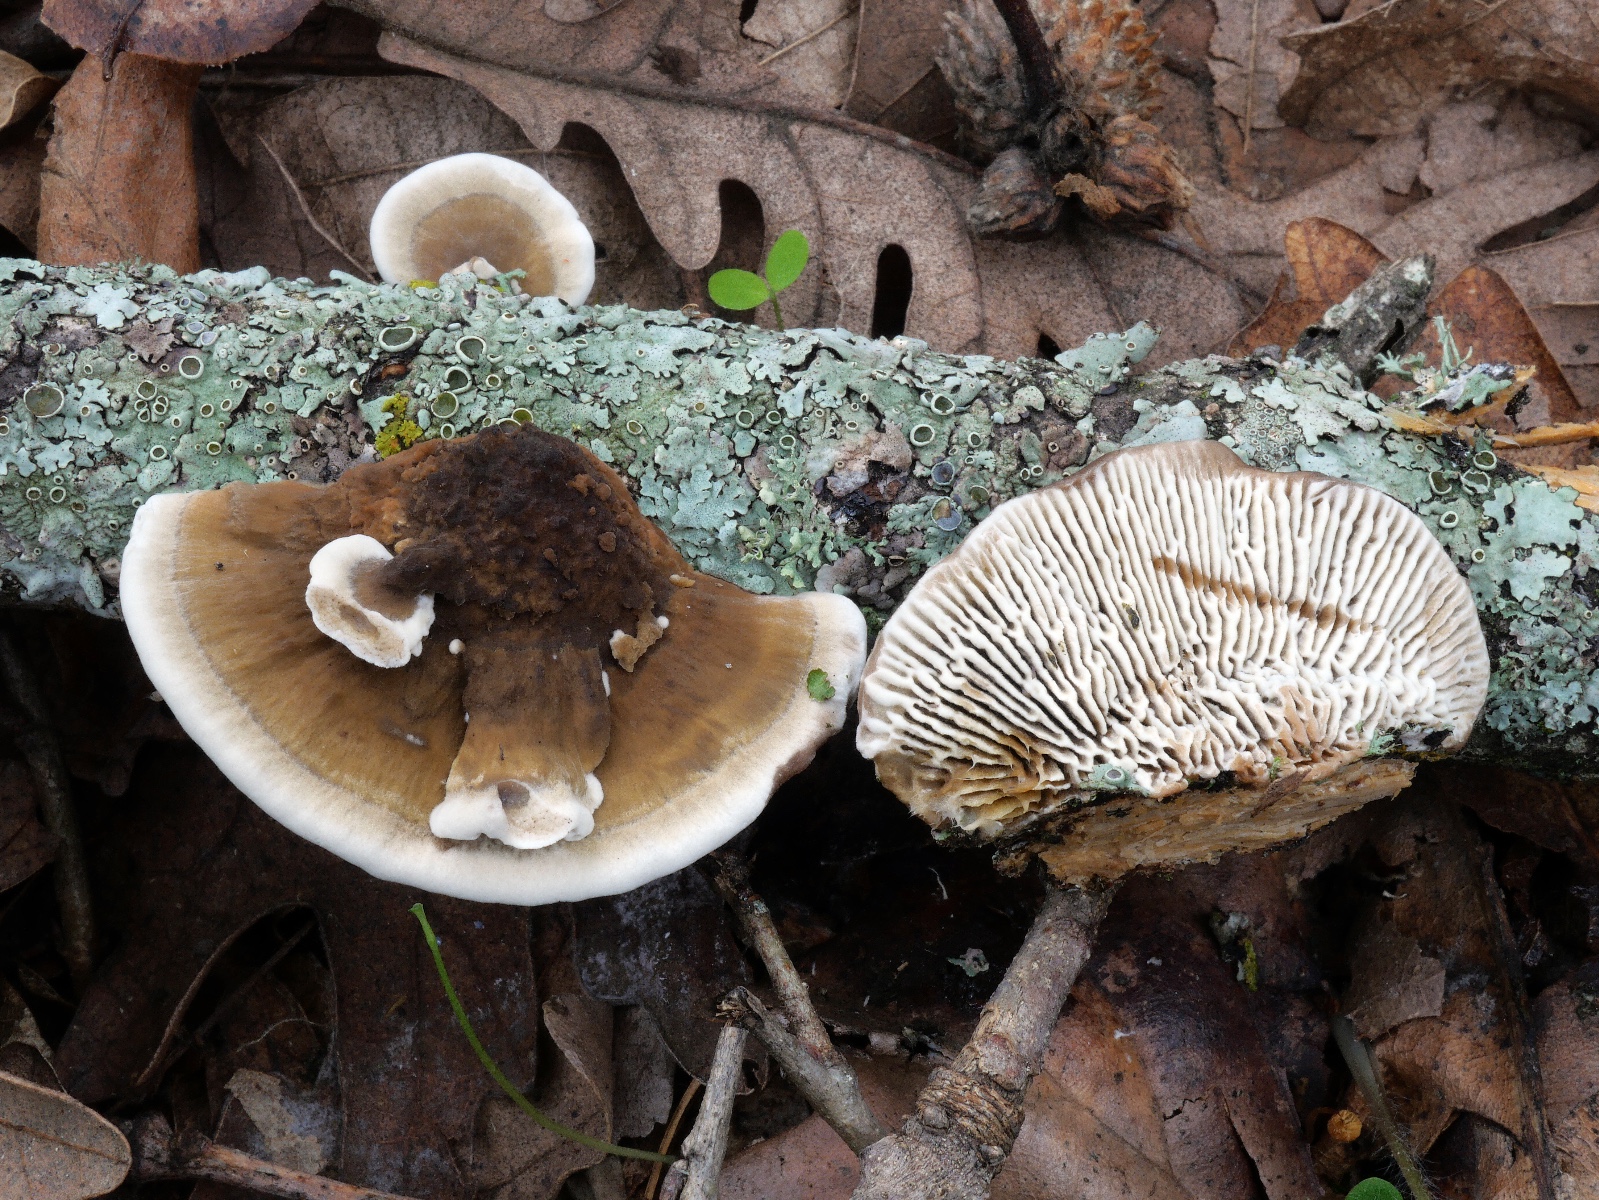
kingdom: Fungi
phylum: Basidiomycota
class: Agaricomycetes
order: Polyporales
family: Polyporaceae
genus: Daedaleopsis
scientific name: Daedaleopsis tricolor
